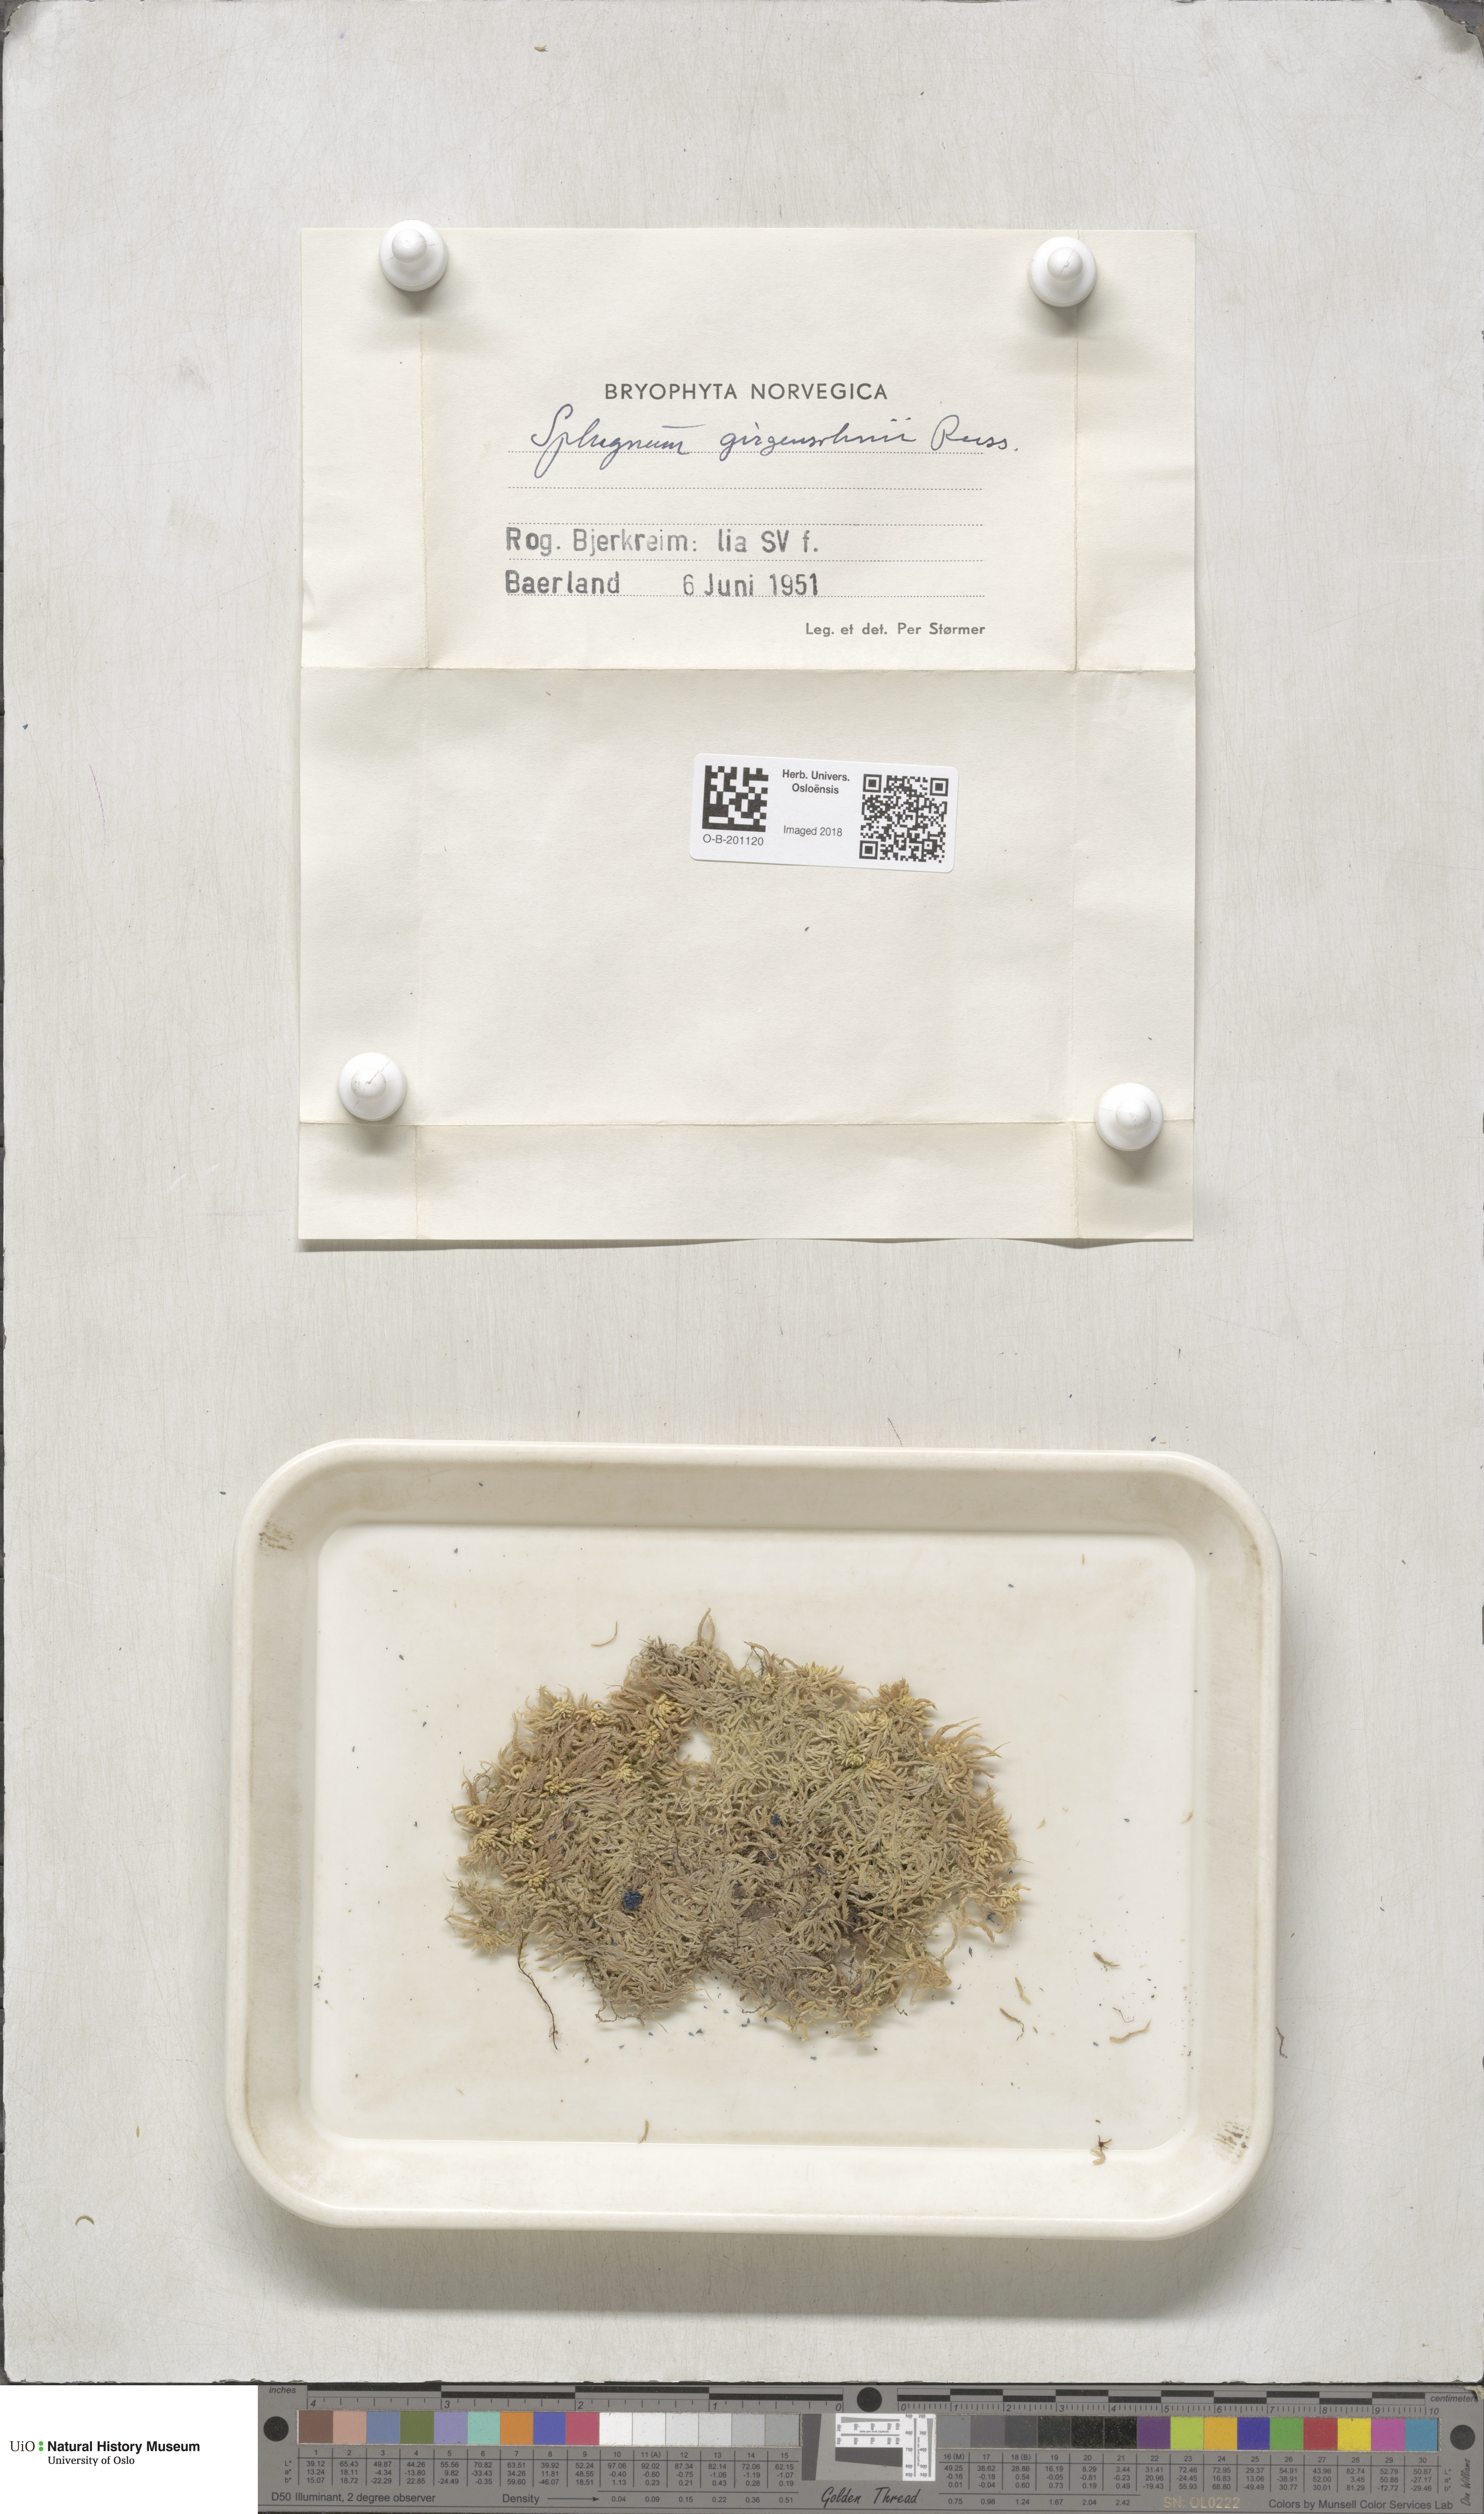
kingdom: Plantae
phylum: Bryophyta
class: Sphagnopsida
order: Sphagnales
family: Sphagnaceae
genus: Sphagnum
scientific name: Sphagnum girgensohnii
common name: Girgensohn's peat moss
